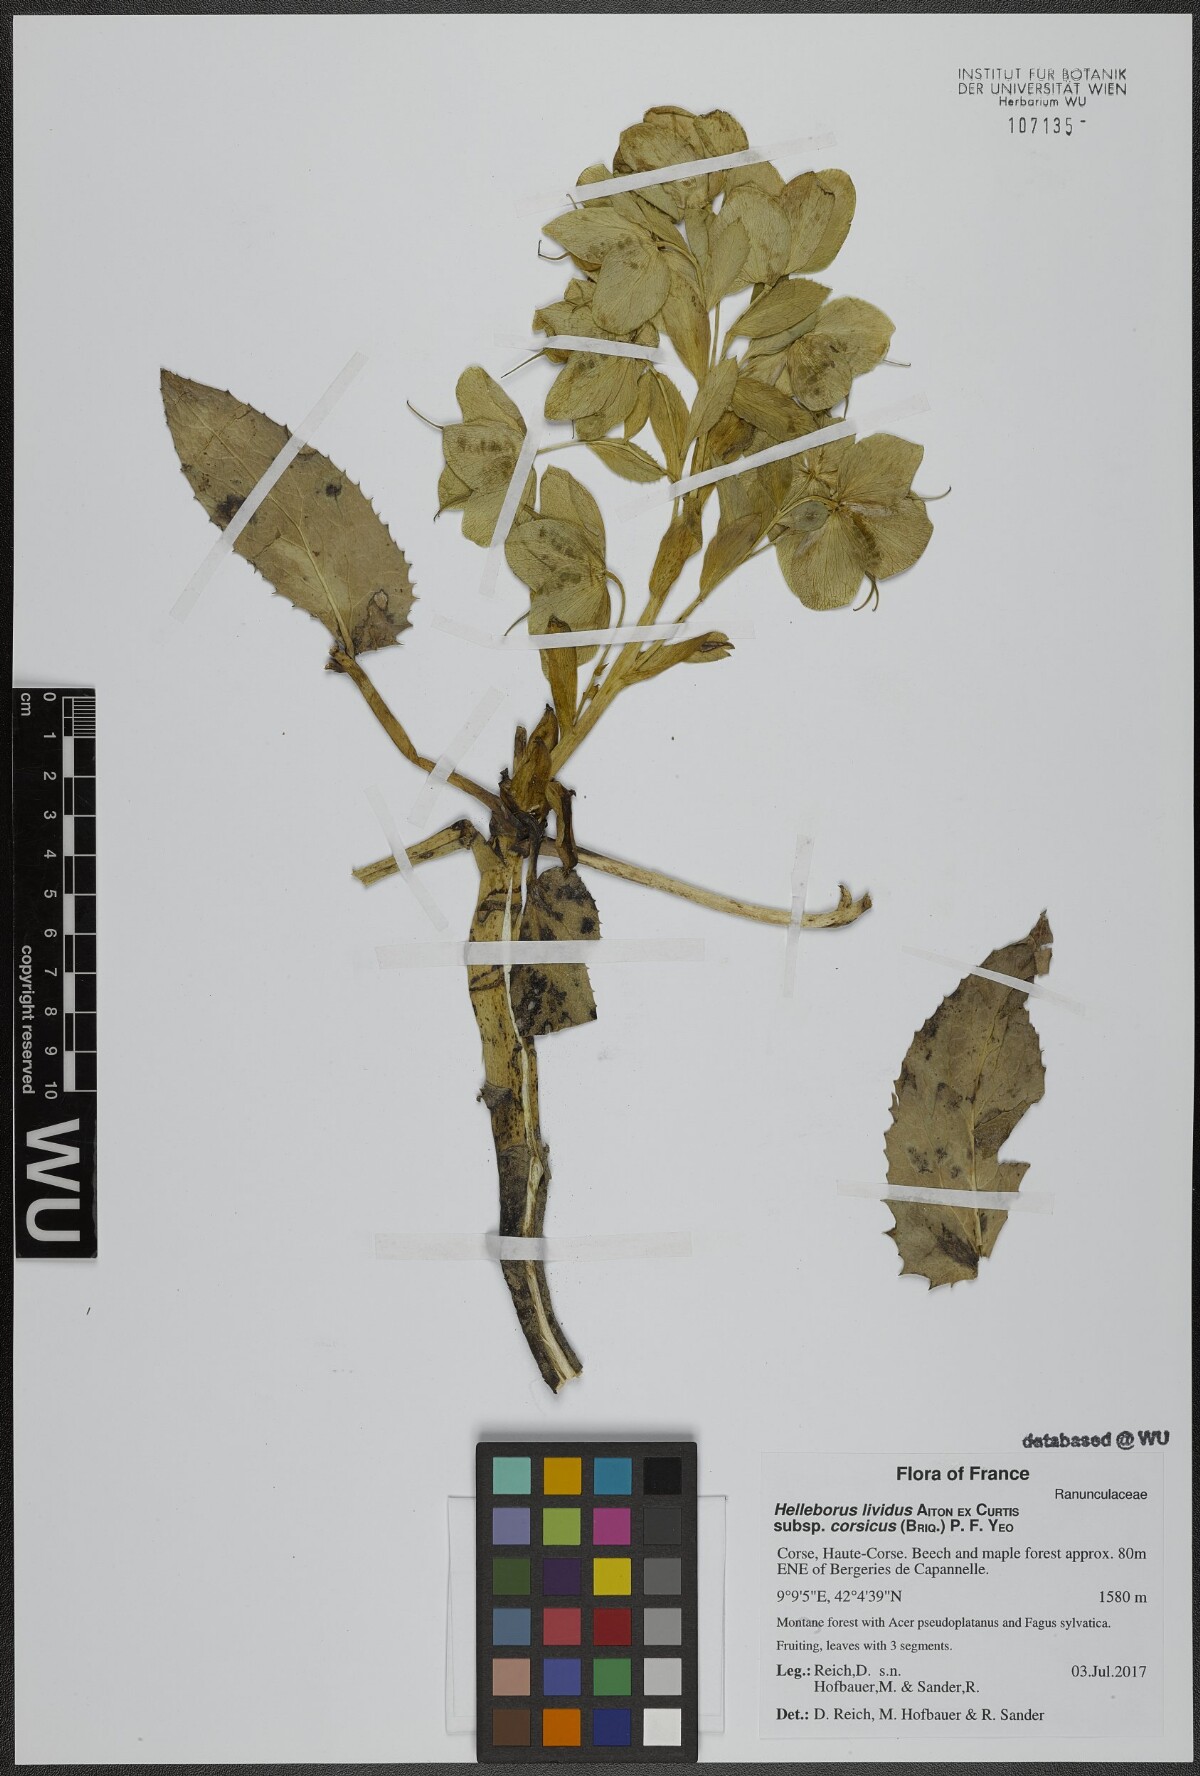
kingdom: Plantae
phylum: Tracheophyta
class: Magnoliopsida
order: Ranunculales
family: Ranunculaceae
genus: Helleborus
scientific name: Helleborus argutifolius
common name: Corsican hellebore
